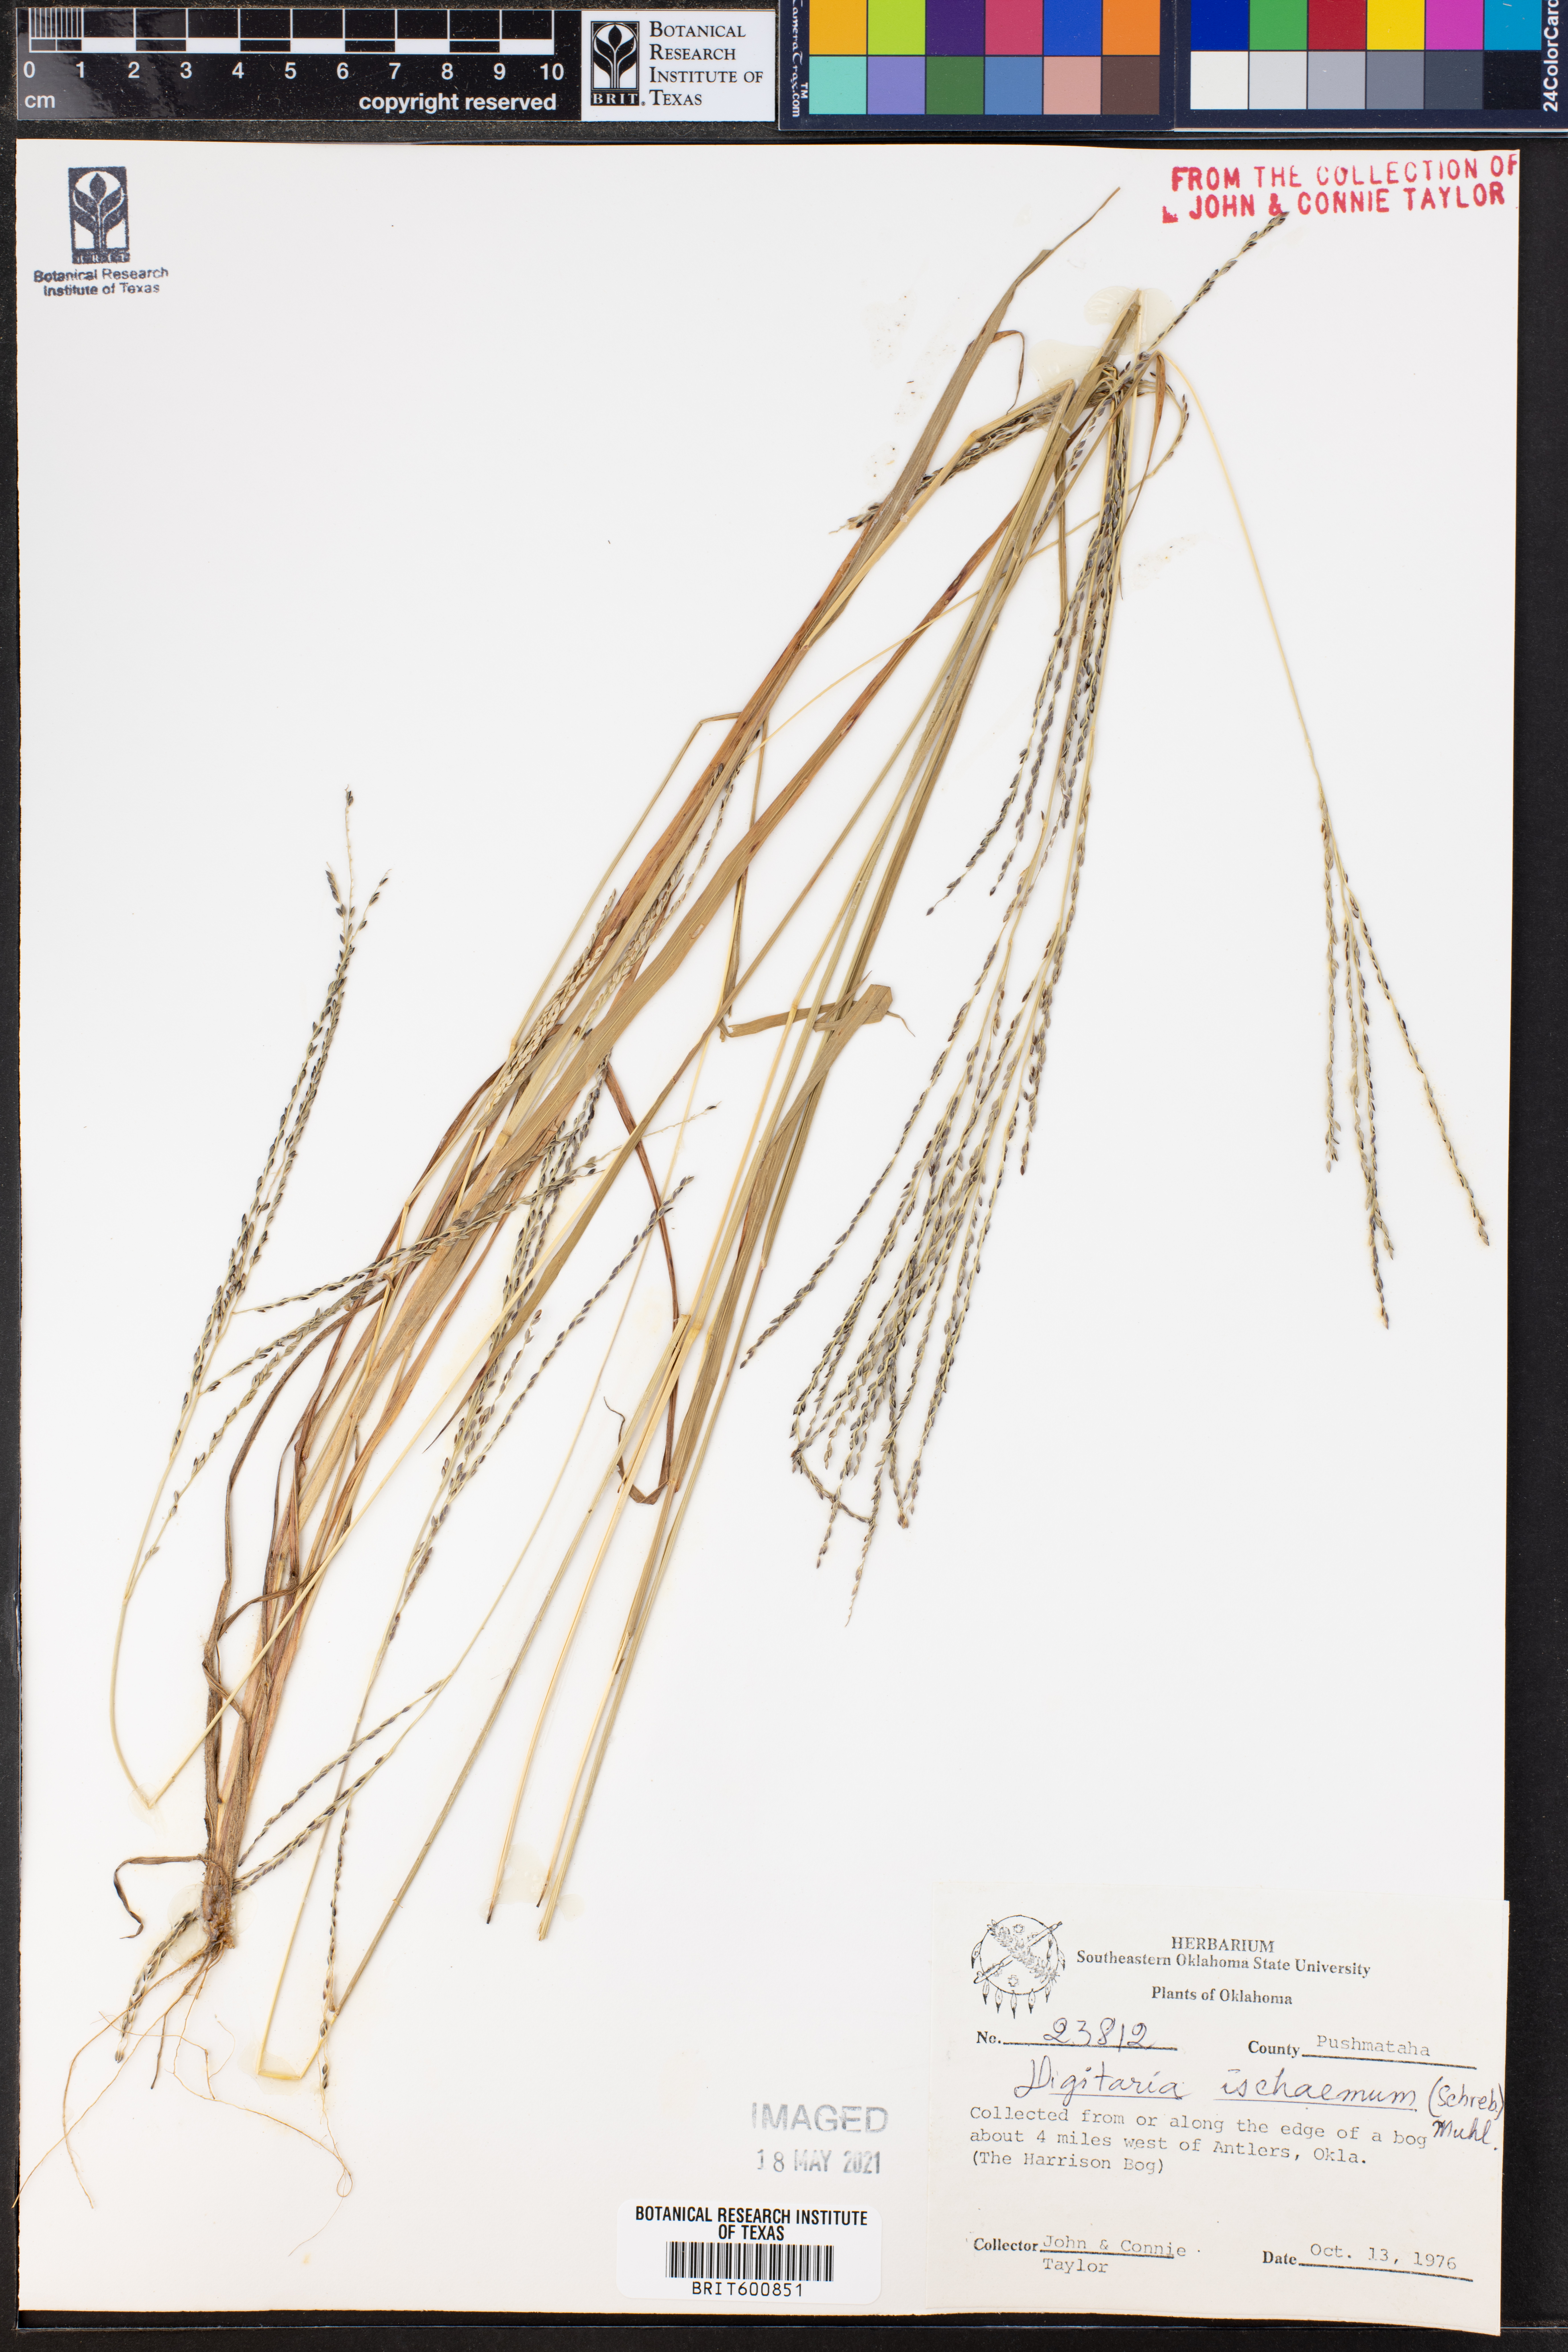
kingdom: Plantae
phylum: Tracheophyta
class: Liliopsida
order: Poales
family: Poaceae
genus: Digitaria
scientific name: Digitaria ischaemum
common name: Smooth crabgrass
